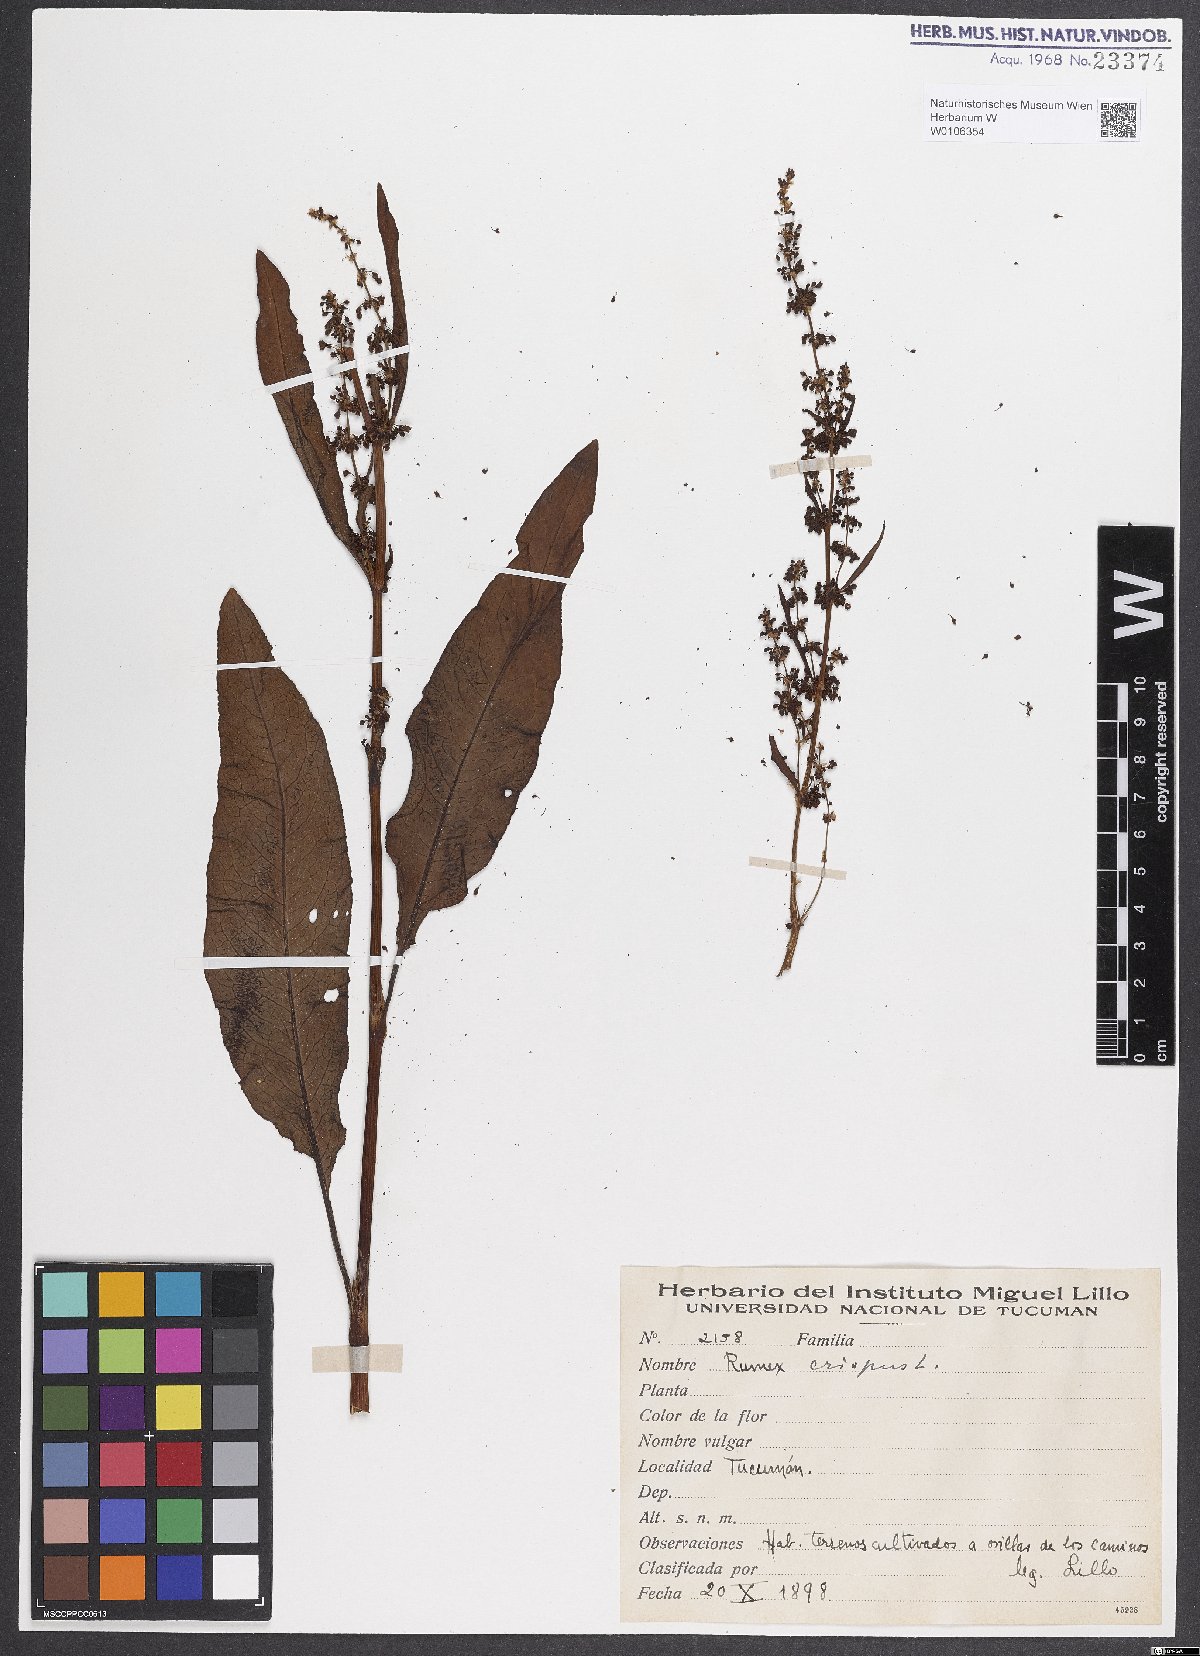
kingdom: Plantae
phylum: Tracheophyta
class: Magnoliopsida
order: Caryophyllales
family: Polygonaceae
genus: Rumex
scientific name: Rumex crispus
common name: Curled dock
